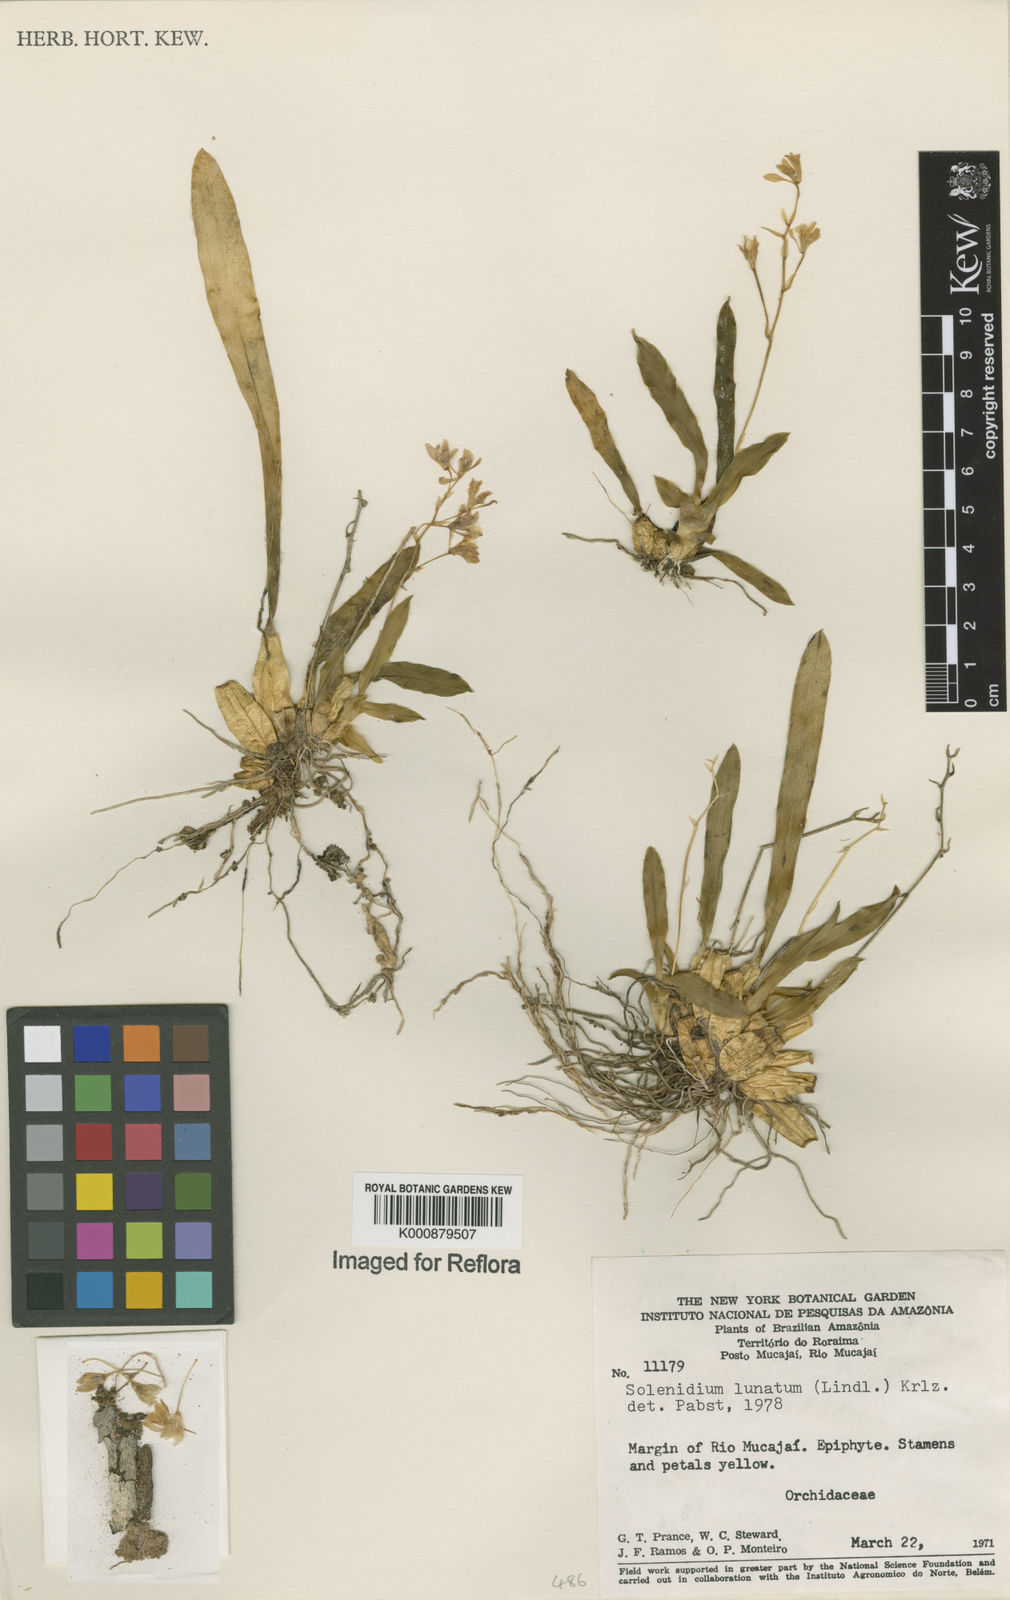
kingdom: Plantae
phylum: Tracheophyta
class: Liliopsida
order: Asparagales
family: Orchidaceae
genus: Solenidium
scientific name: Solenidium lunatum
